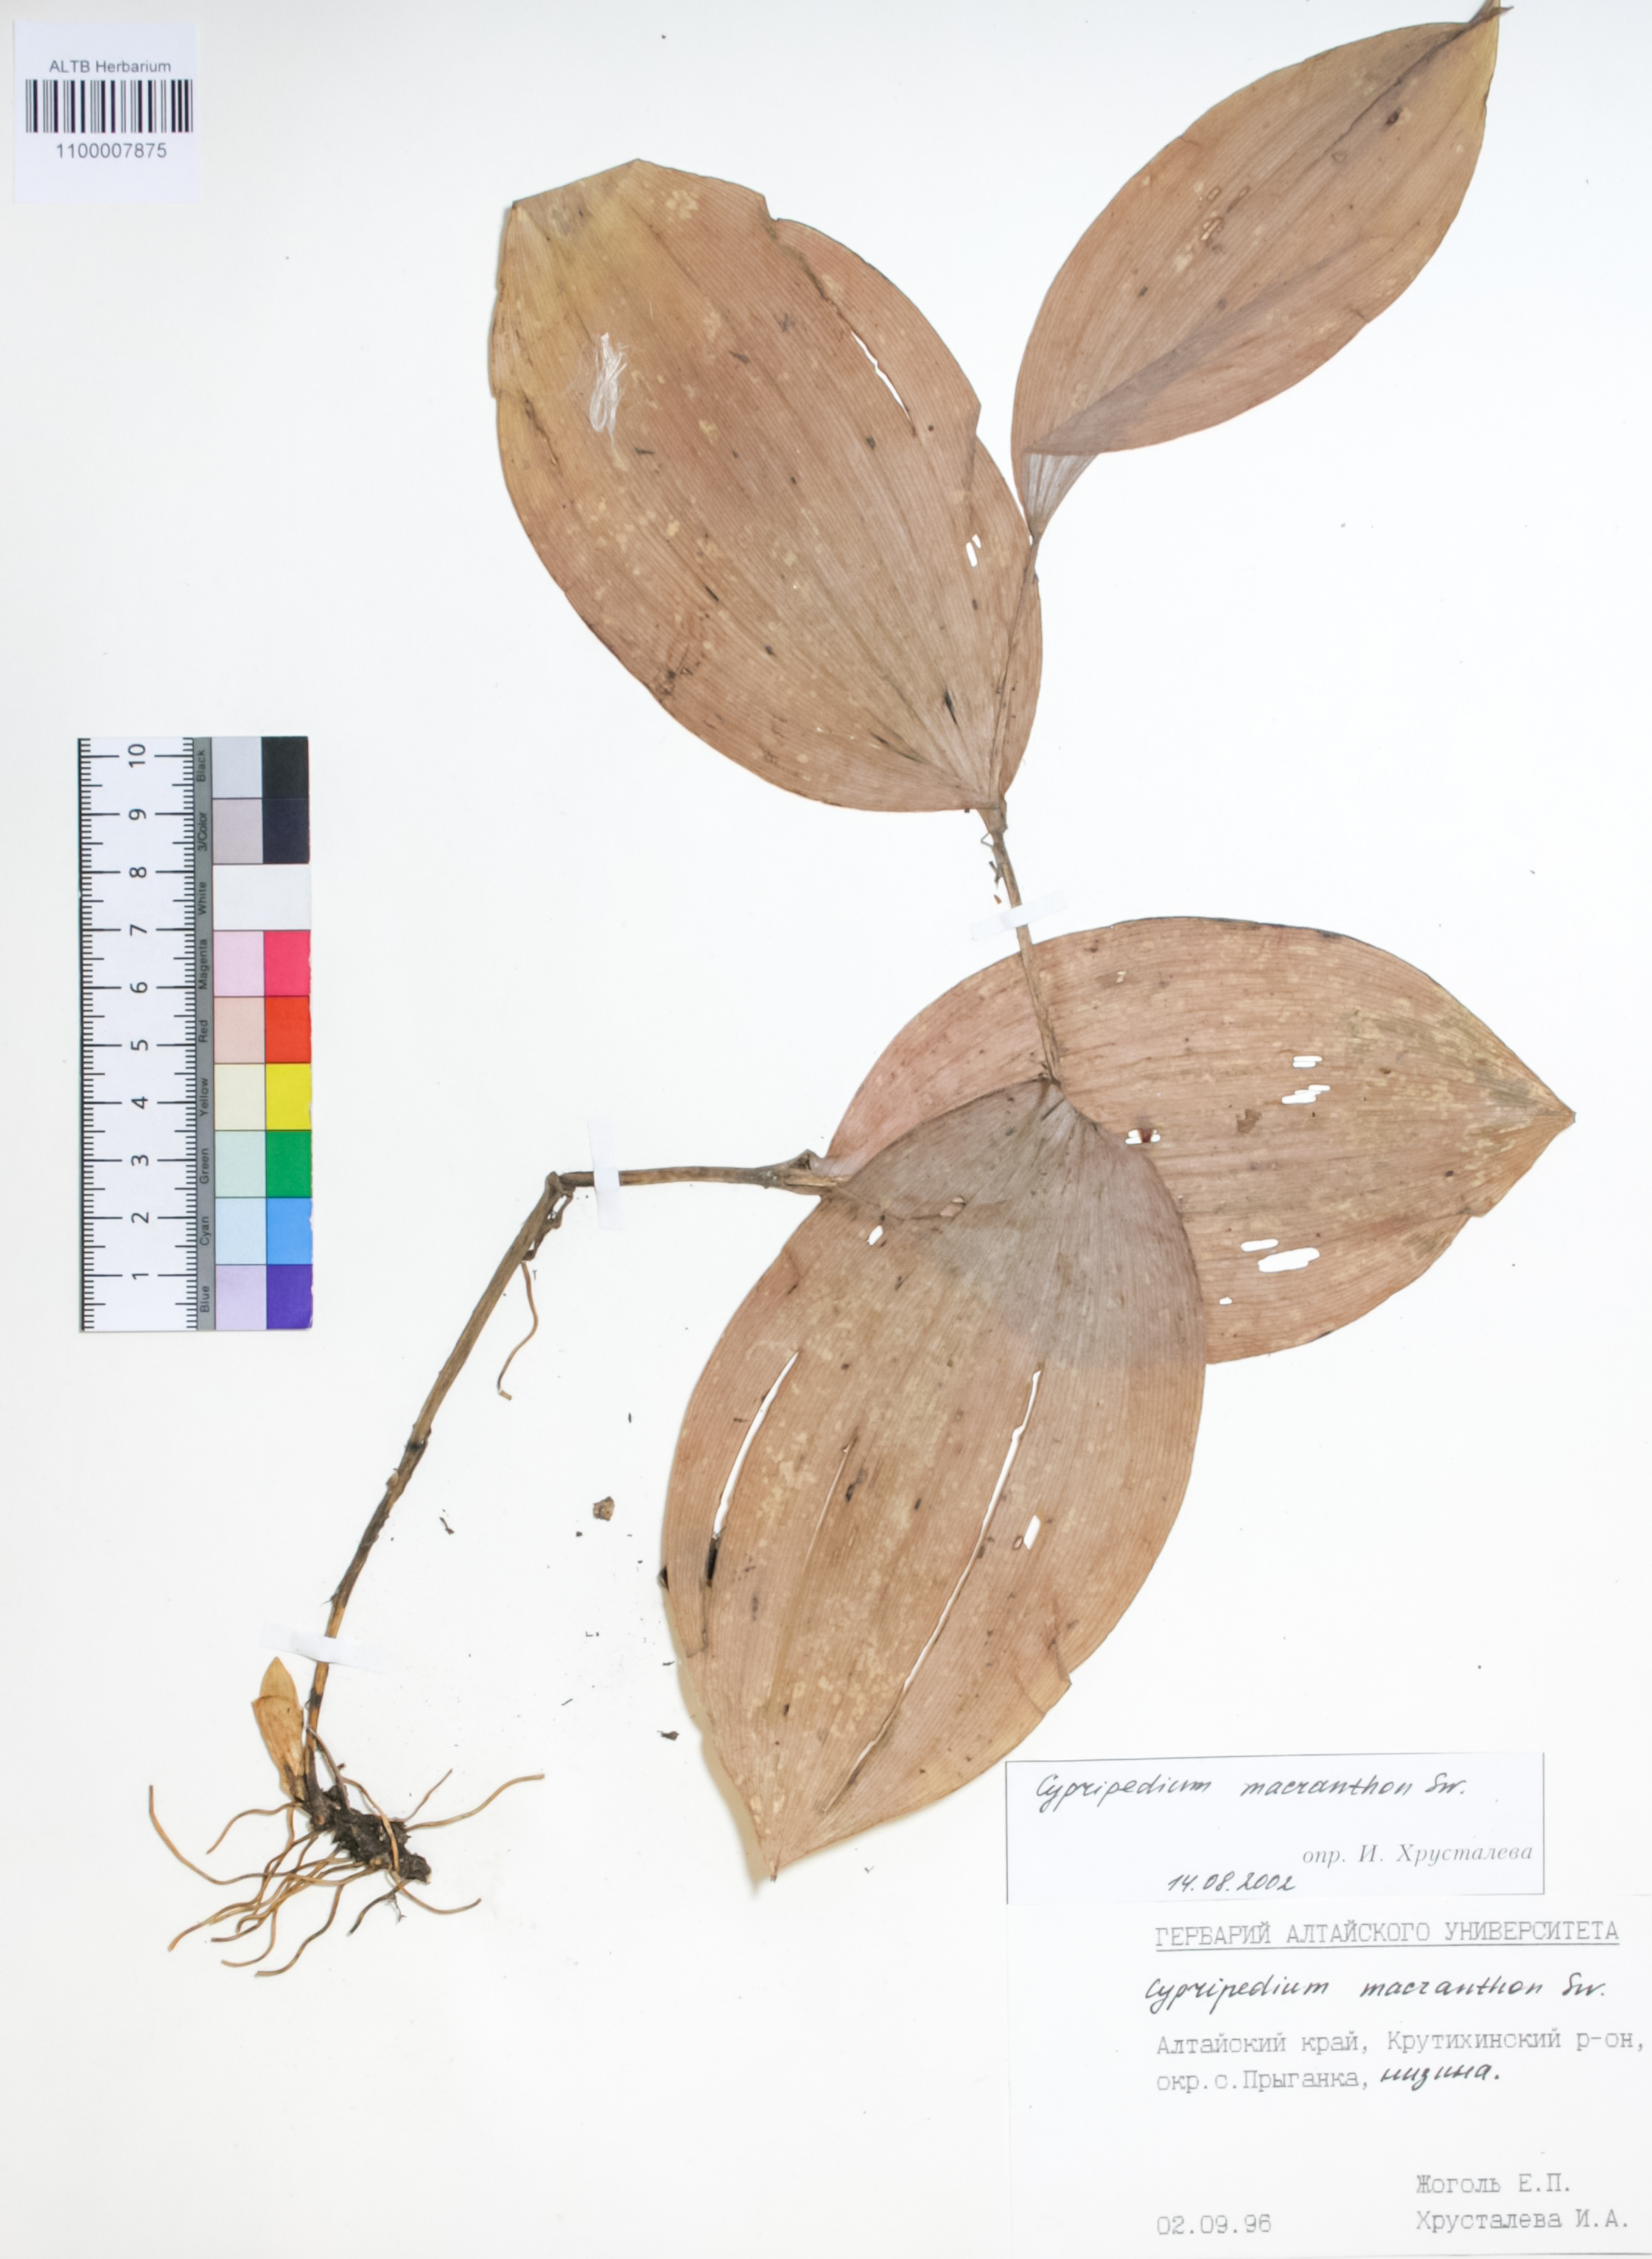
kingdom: Plantae
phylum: Tracheophyta
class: Liliopsida
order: Asparagales
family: Orchidaceae
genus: Cypripedium
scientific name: Cypripedium macranthon
